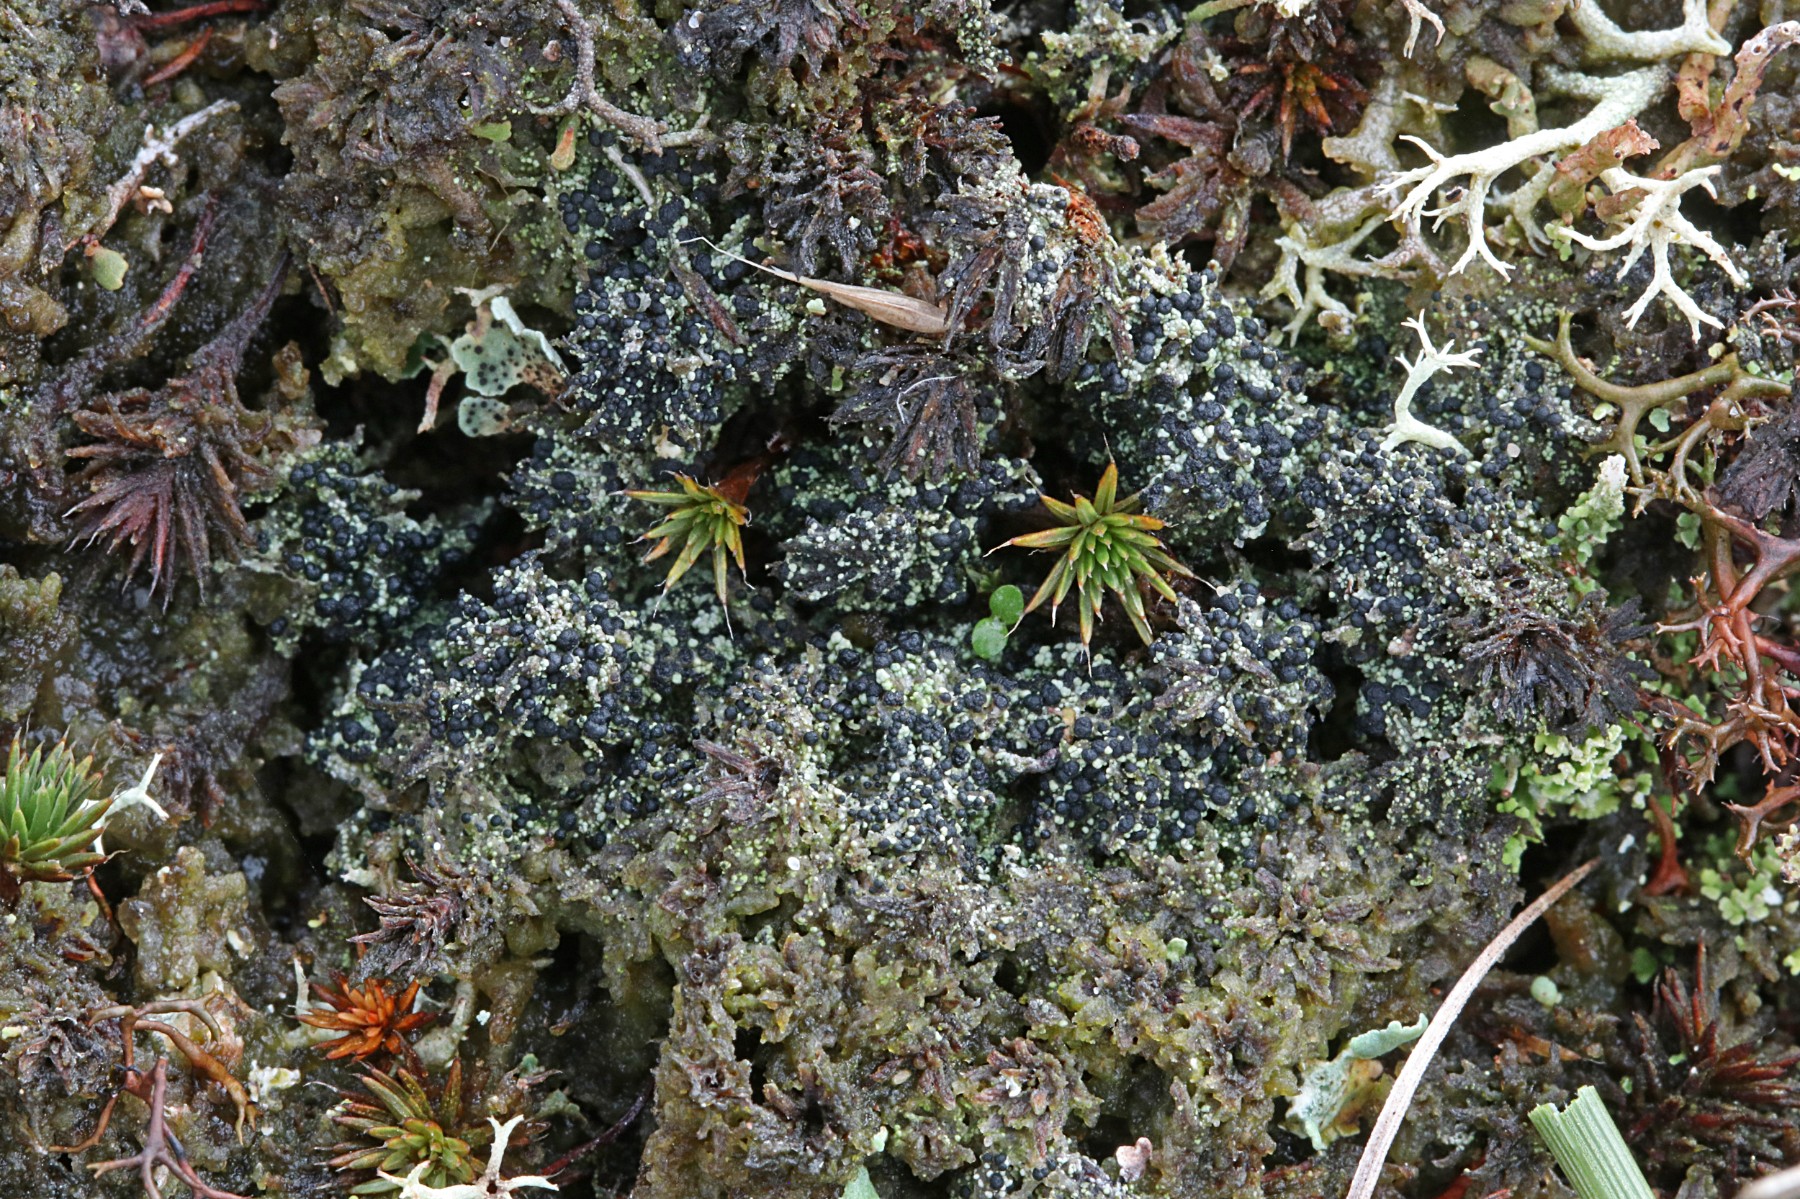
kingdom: Fungi
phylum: Ascomycota
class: Lecanoromycetes
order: Lecanorales
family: Byssolomataceae
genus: Micarea
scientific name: Micarea lignaria
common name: tørve-knaplav
